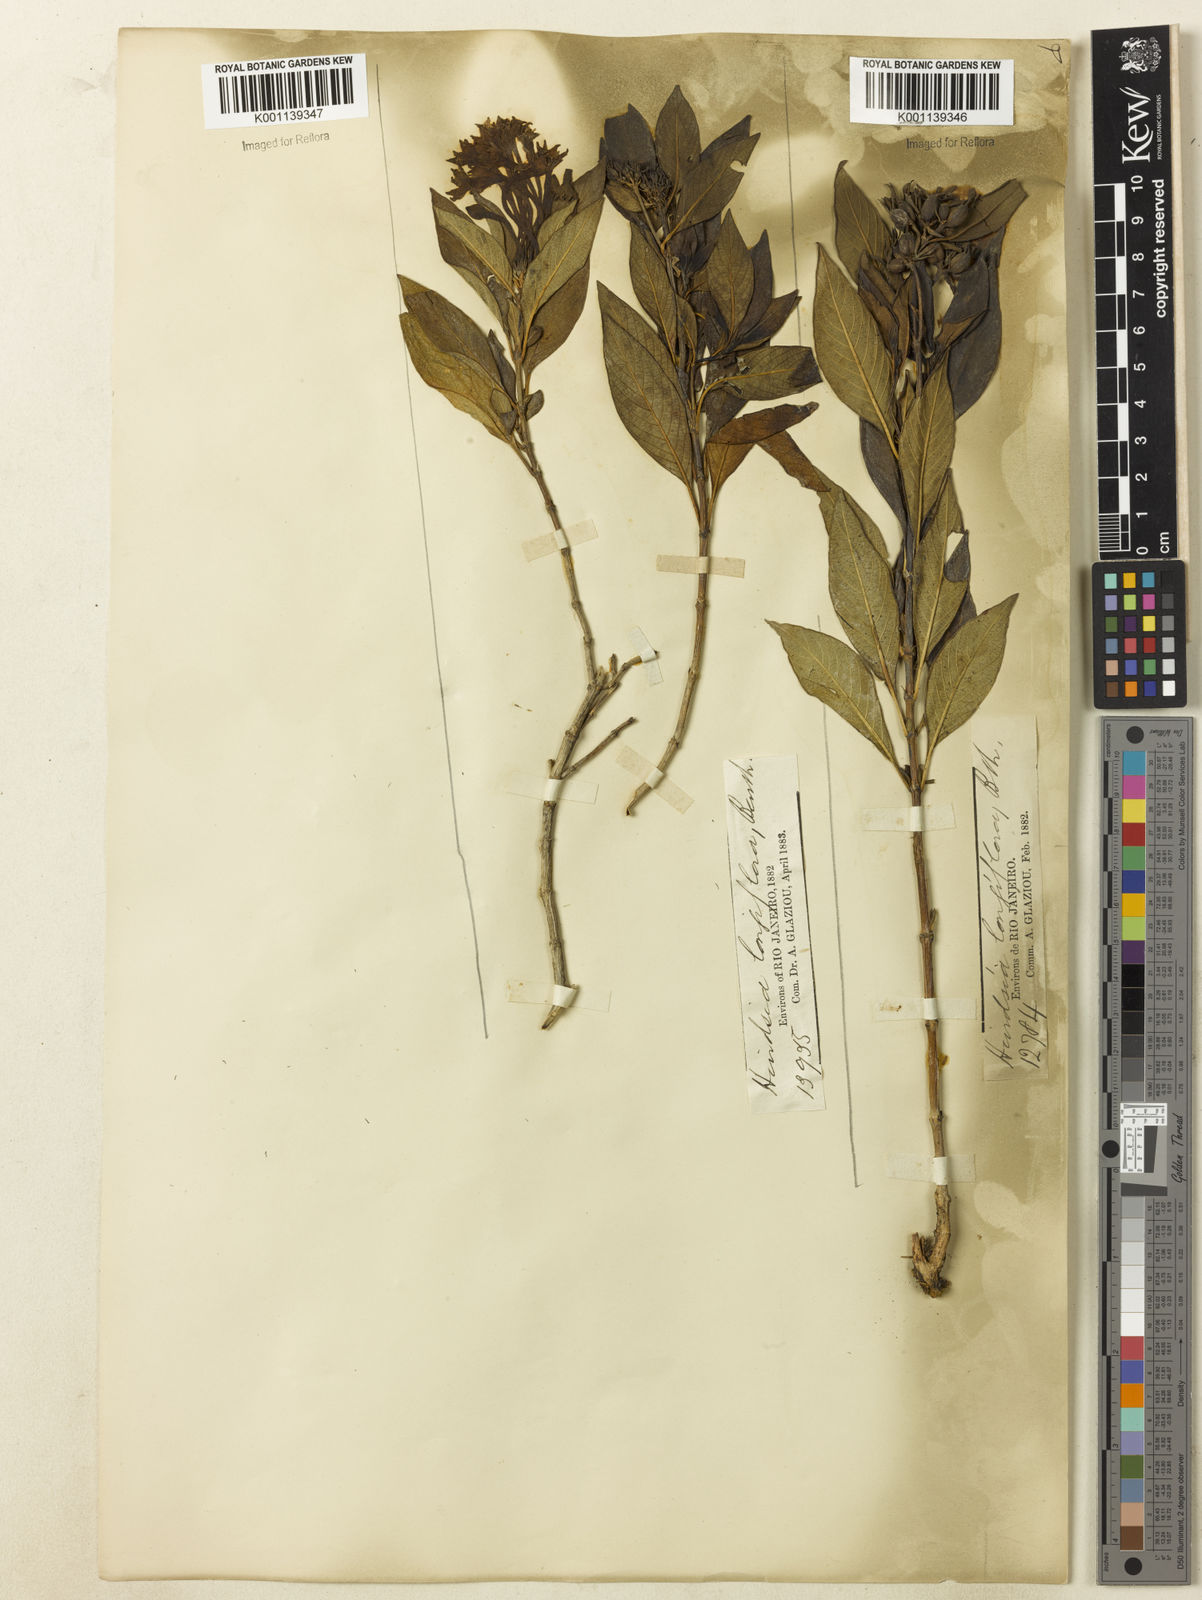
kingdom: Plantae
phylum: Tracheophyta
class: Magnoliopsida
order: Gentianales
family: Rubiaceae
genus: Hindsia
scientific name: Hindsia
